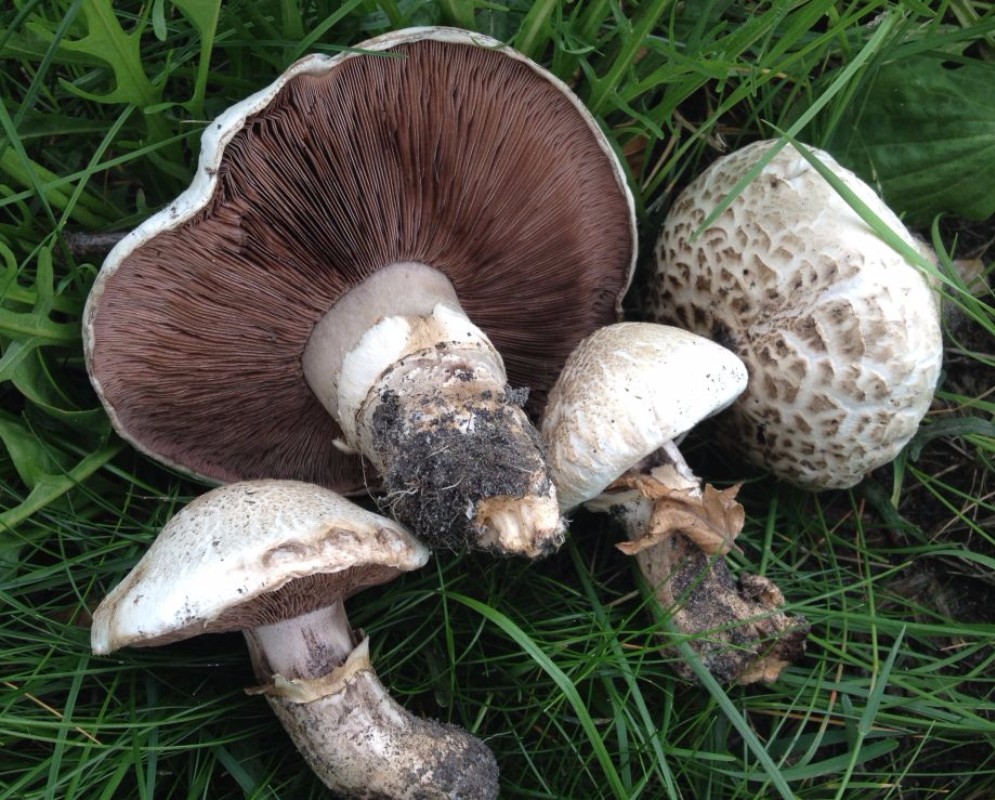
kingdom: Fungi
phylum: Basidiomycota
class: Agaricomycetes
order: Agaricales
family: Agaricaceae
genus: Agaricus
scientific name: Agaricus bernardii
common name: strandengs-champignon
